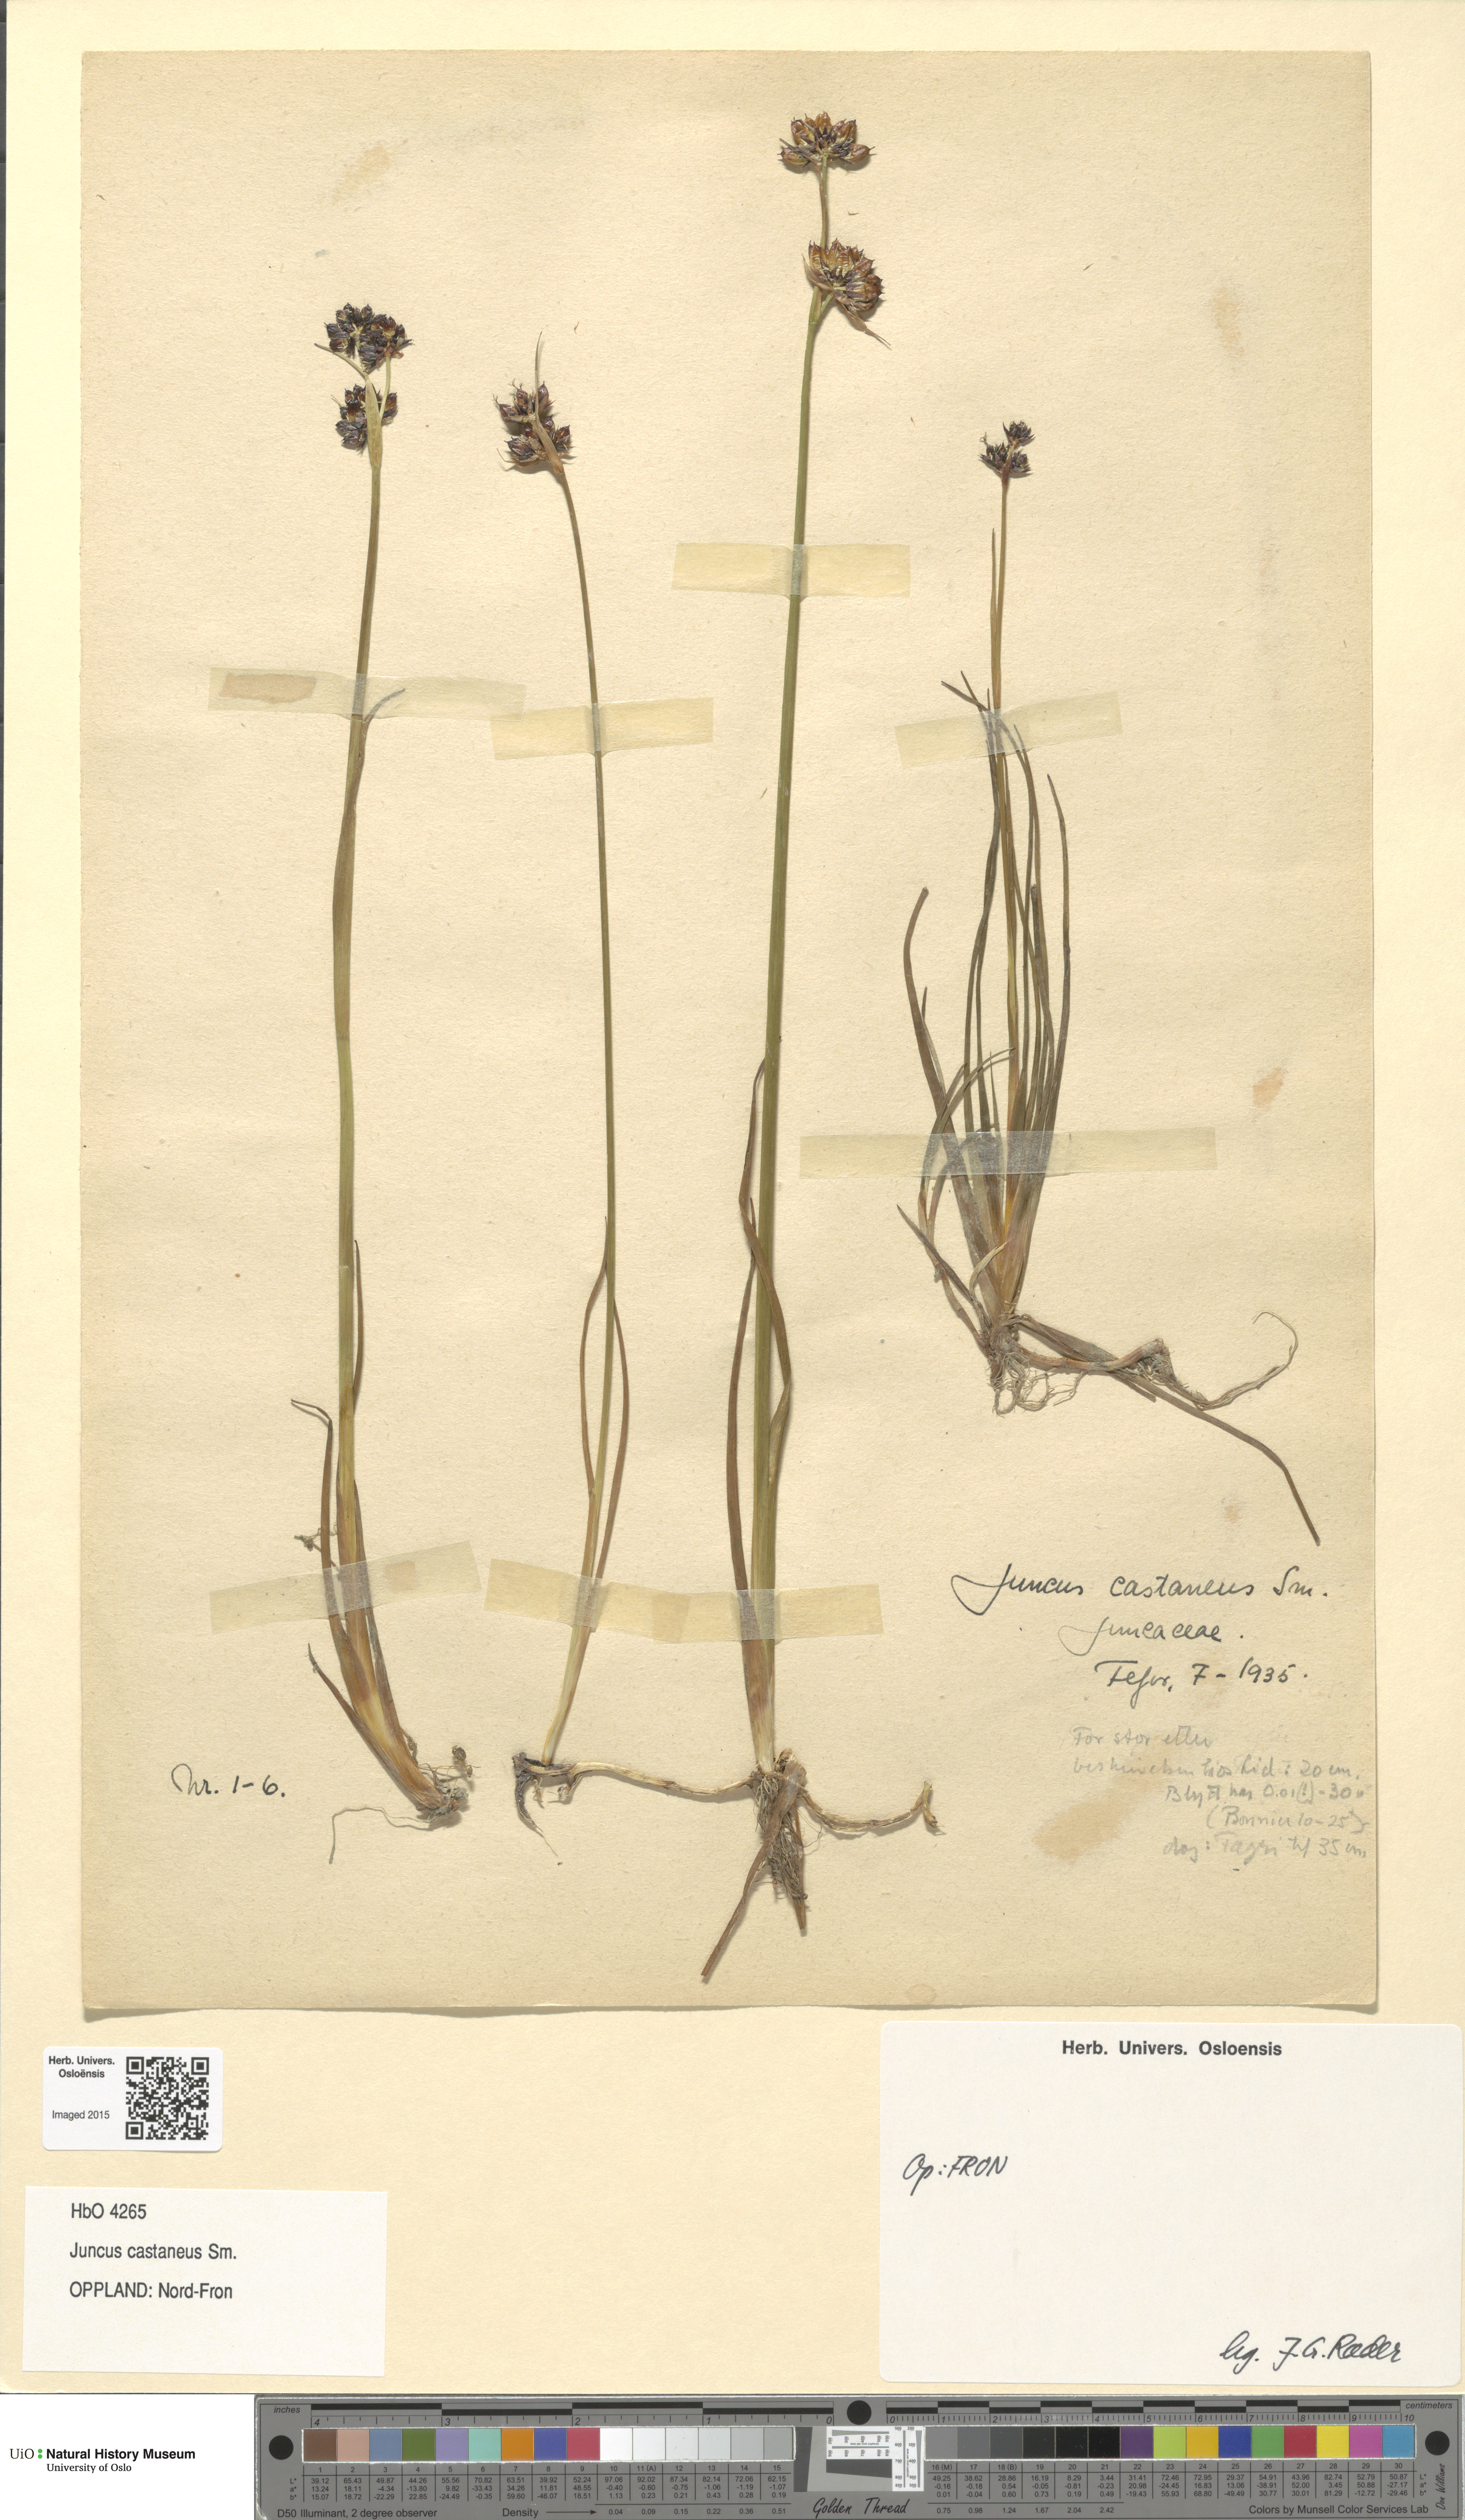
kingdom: Plantae
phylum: Tracheophyta
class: Liliopsida
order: Poales
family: Juncaceae
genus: Juncus
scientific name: Juncus castaneus
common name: Chestnut rush
